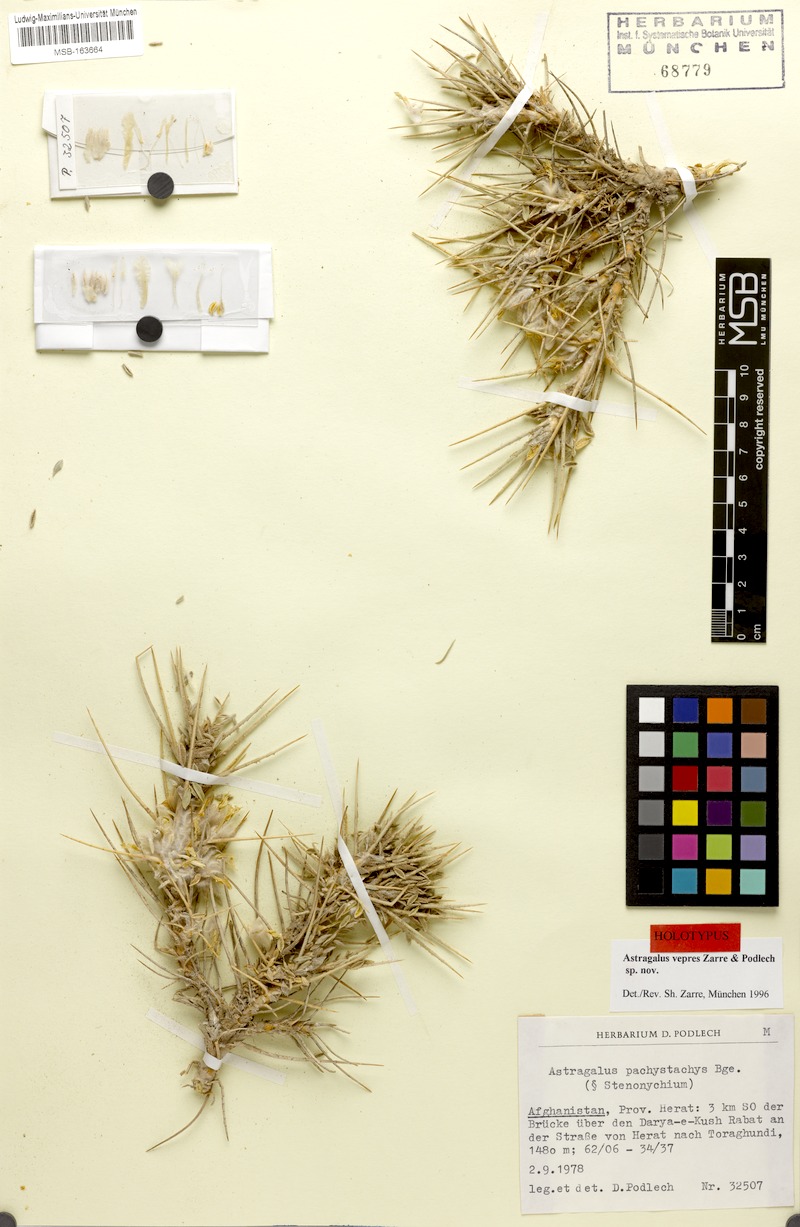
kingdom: Plantae
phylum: Tracheophyta
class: Magnoliopsida
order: Fabales
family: Fabaceae
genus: Astragalus
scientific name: Astragalus vepres
